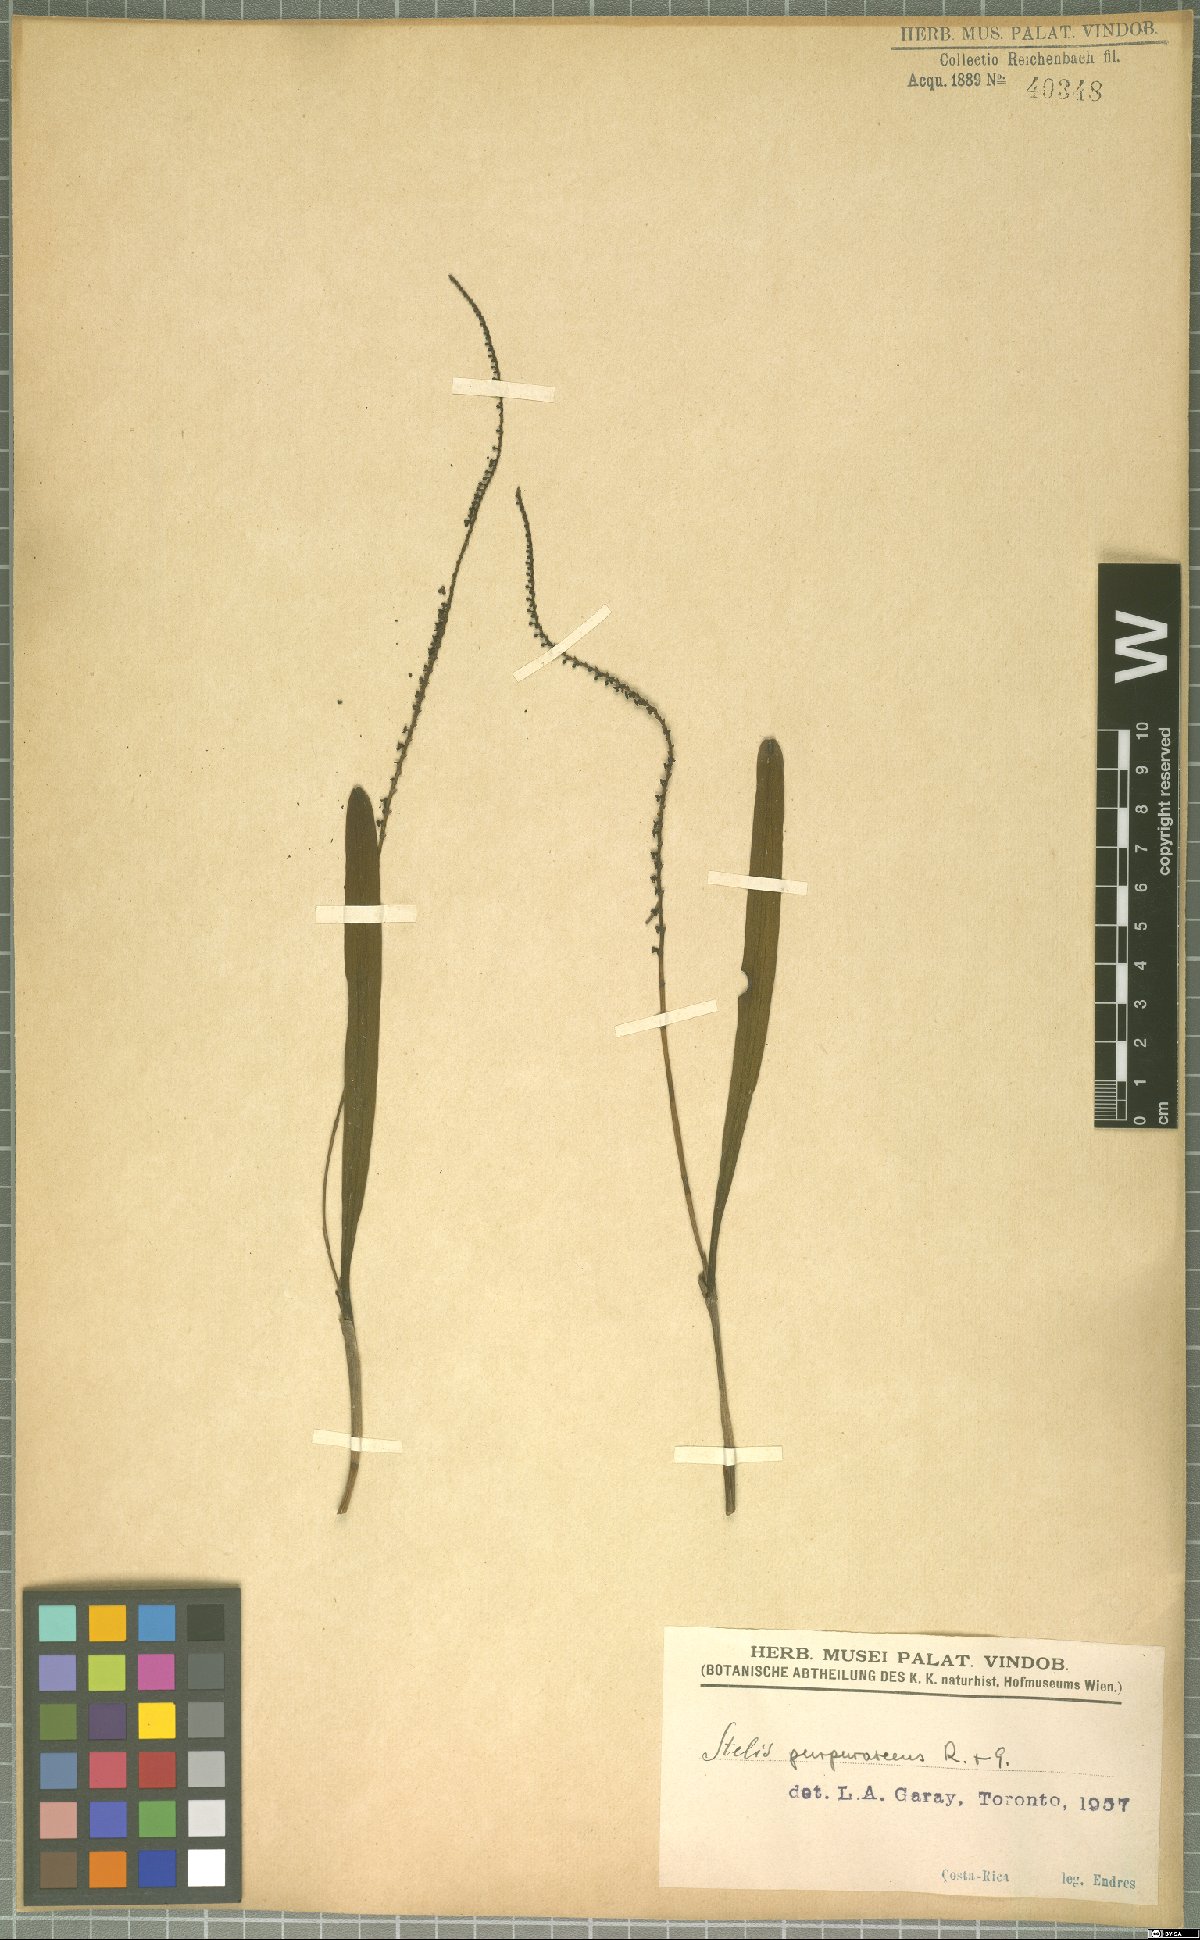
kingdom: Plantae
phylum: Tracheophyta
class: Liliopsida
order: Asparagales
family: Orchidaceae
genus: Stelis
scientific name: Stelis purpurascens
